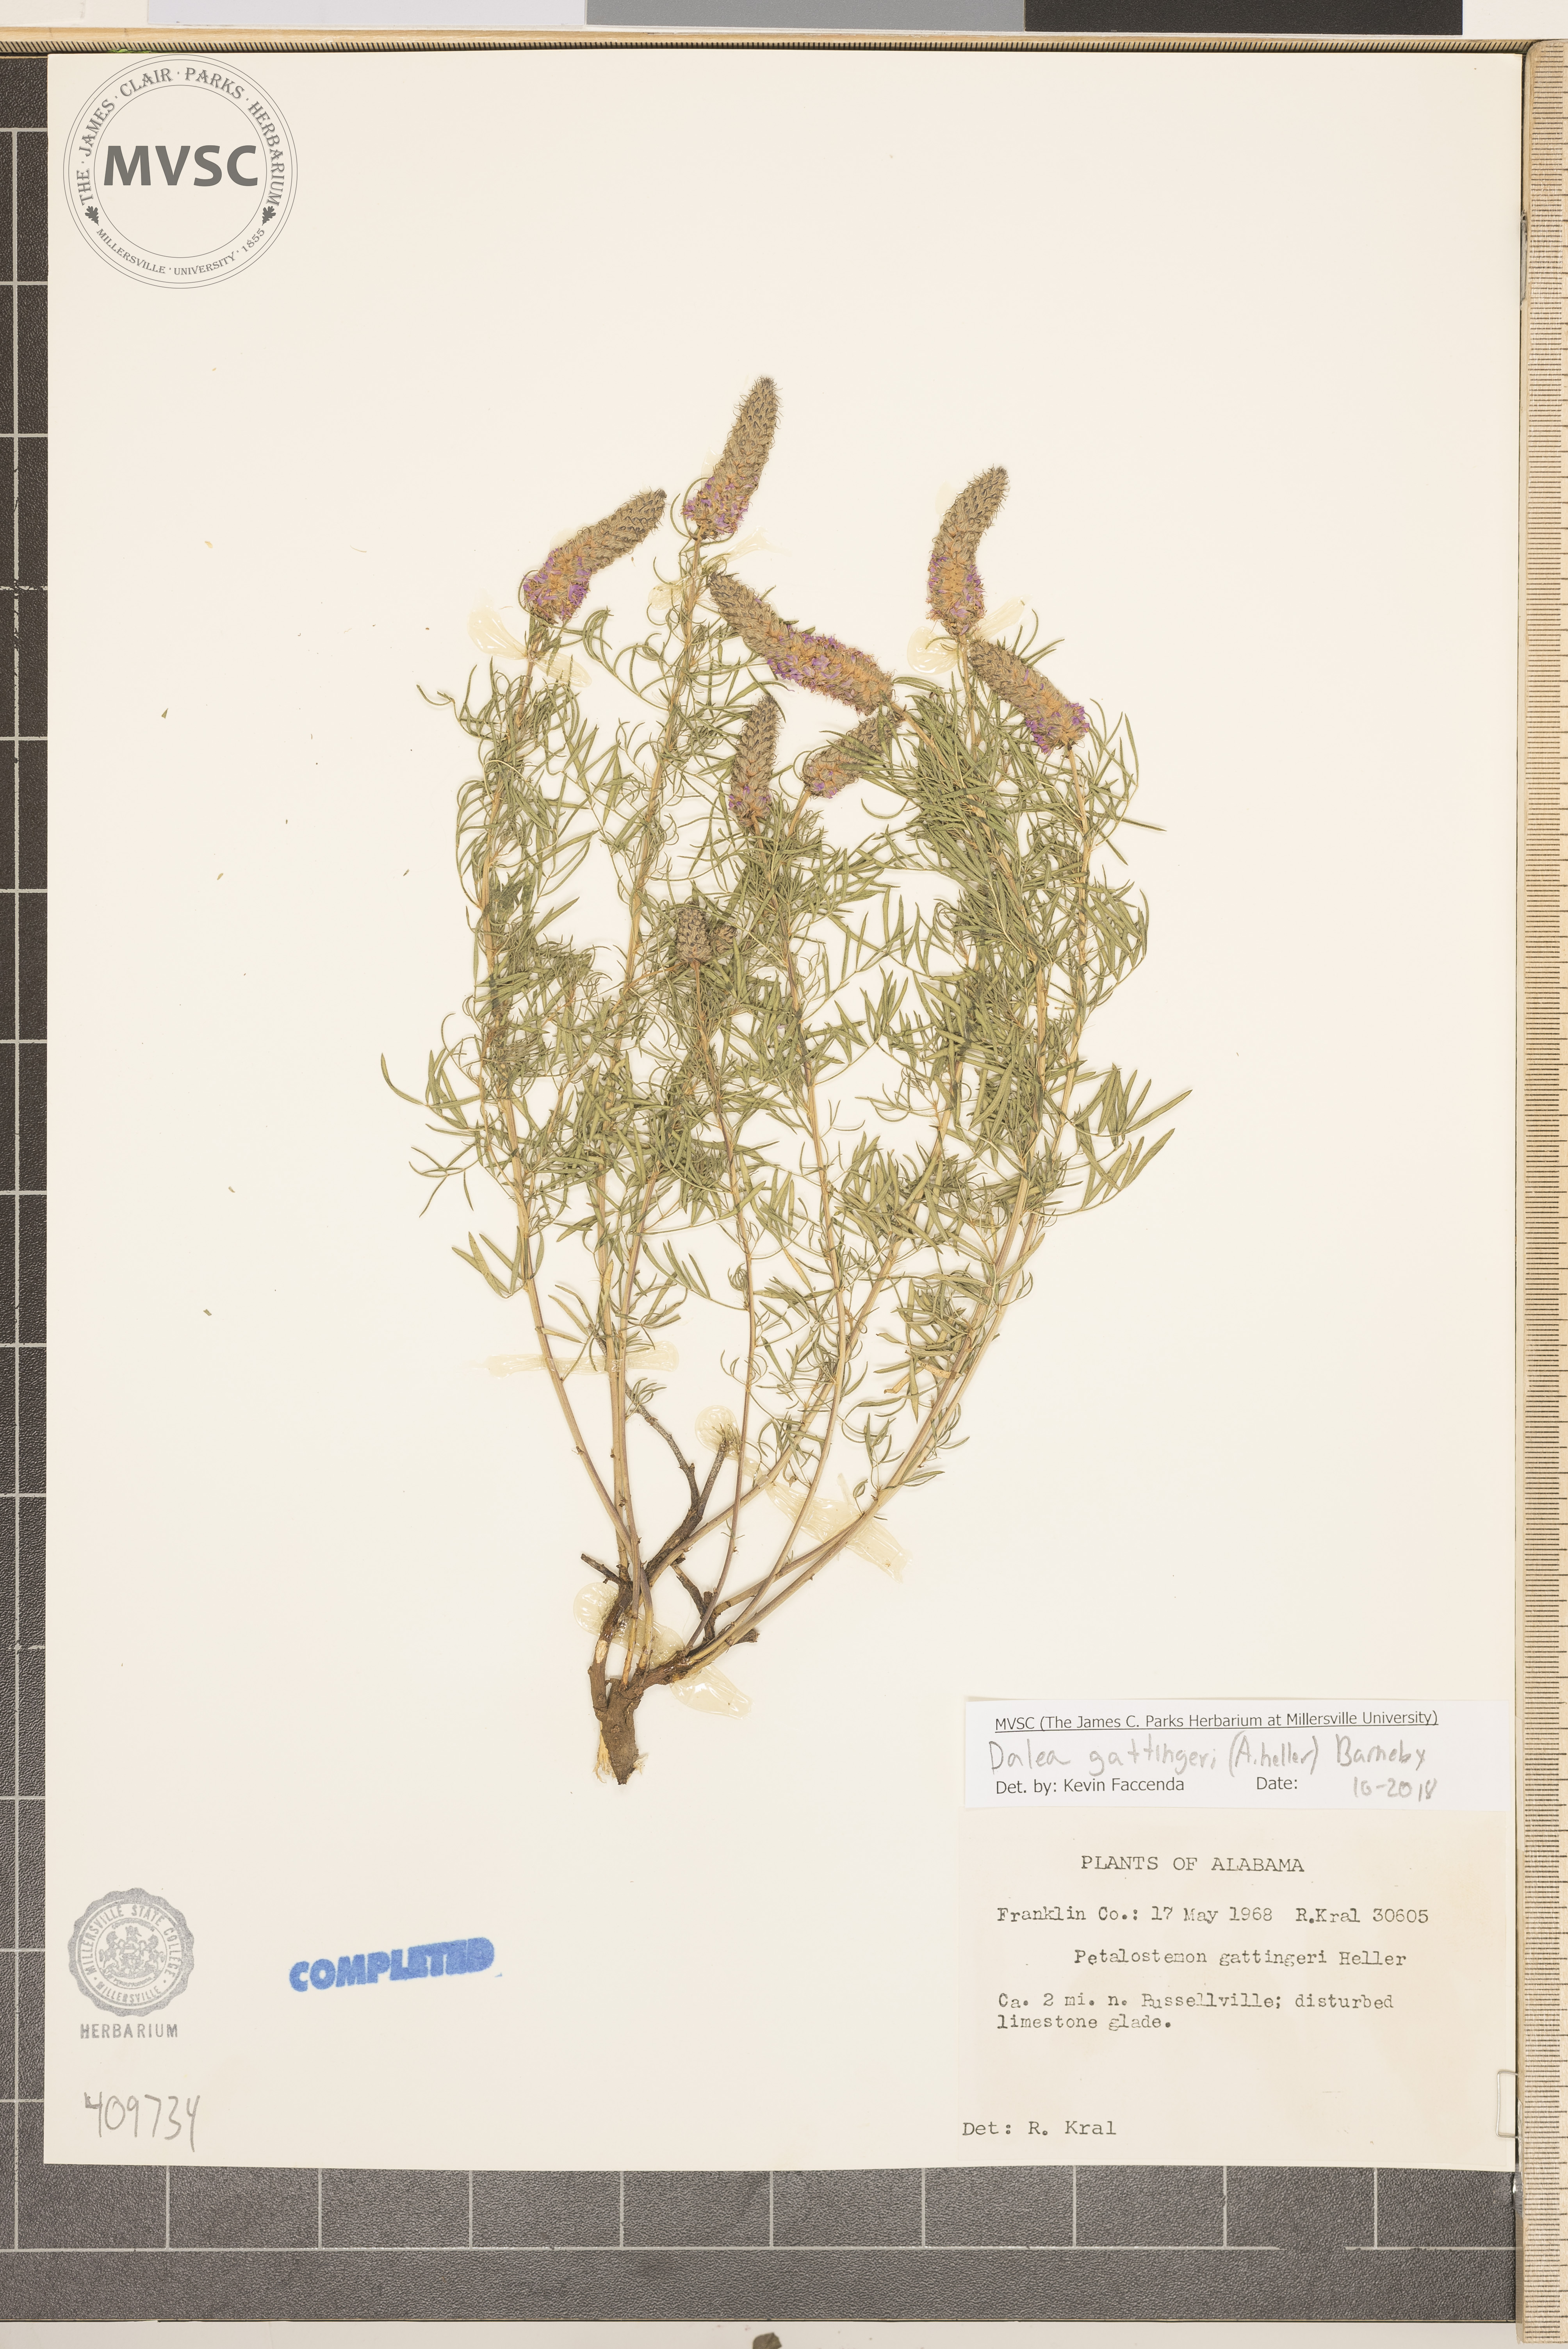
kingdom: Plantae
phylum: Tracheophyta
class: Magnoliopsida
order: Fabales
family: Fabaceae
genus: Dalea
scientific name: Dalea gattingeri
